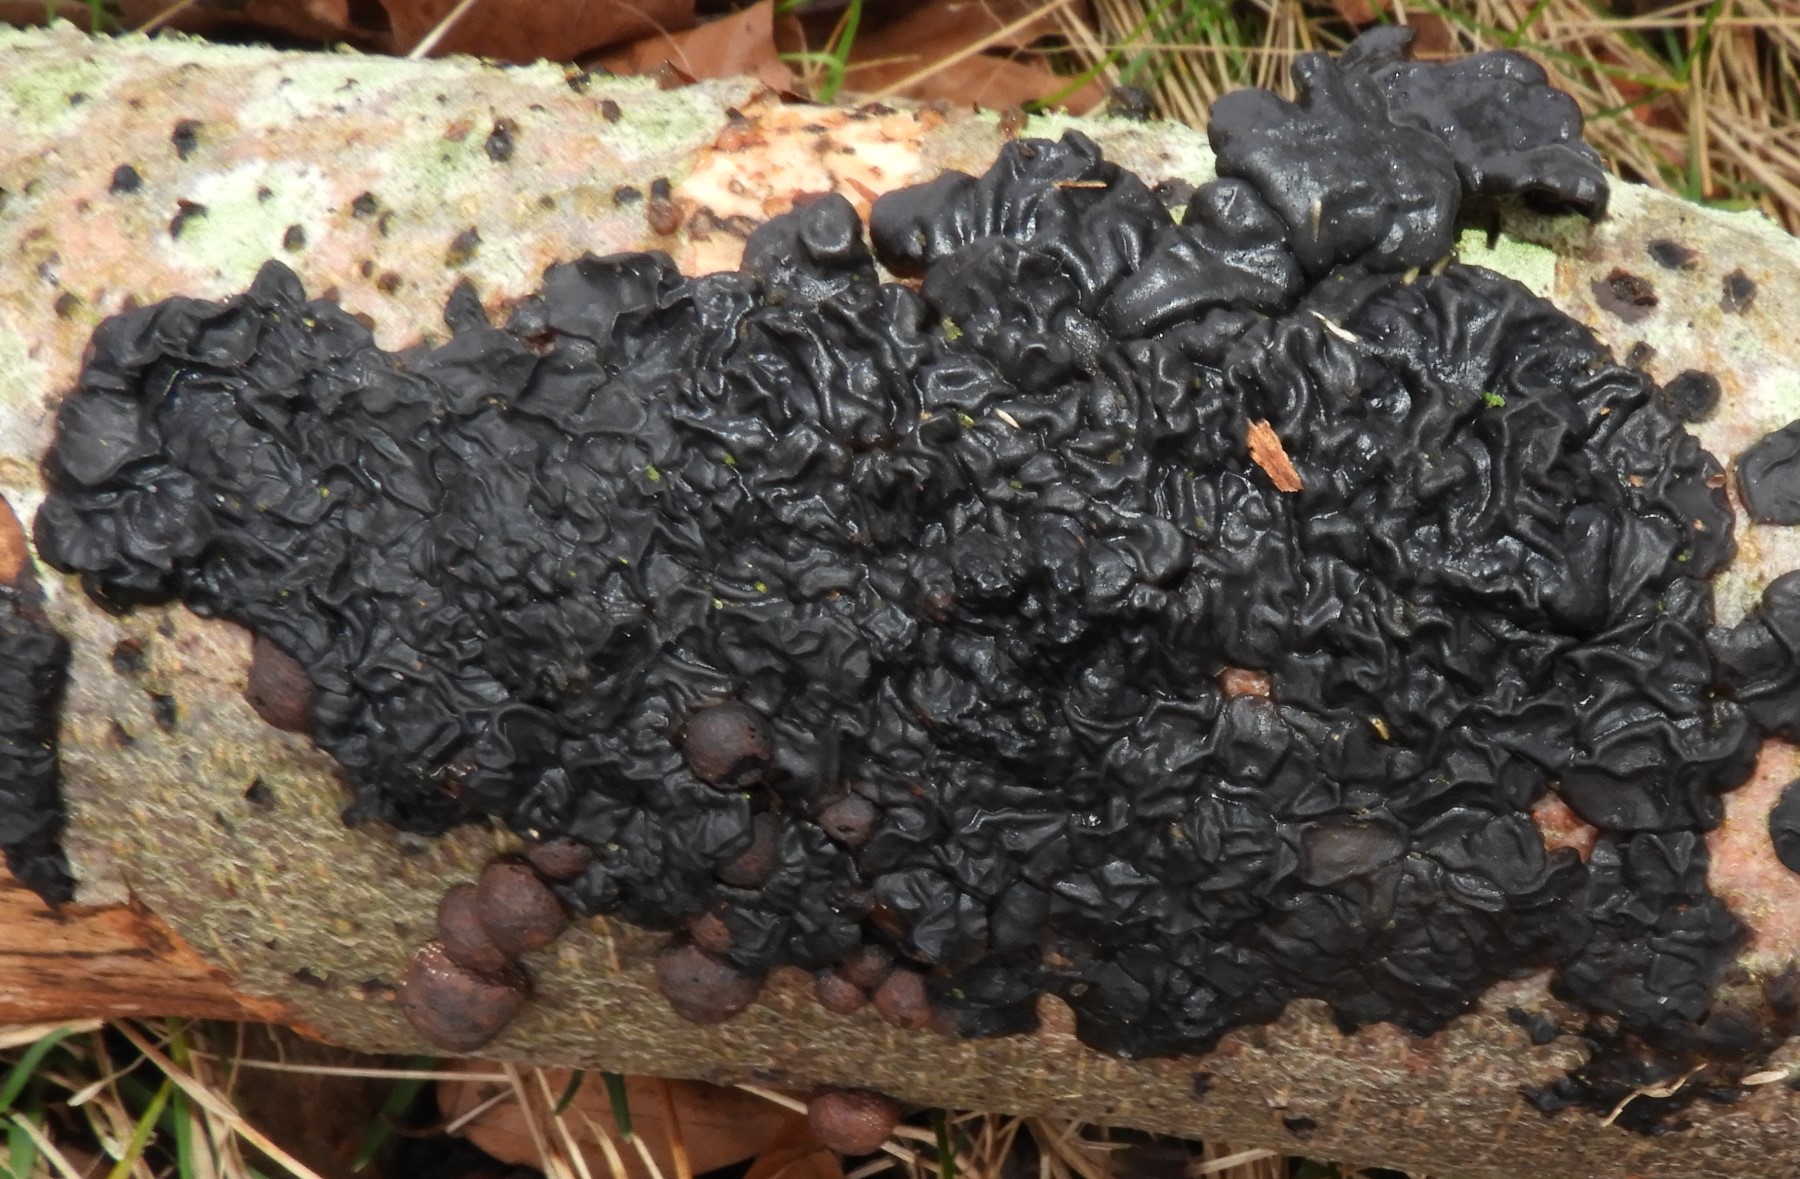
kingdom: Fungi
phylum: Basidiomycota
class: Agaricomycetes
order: Auriculariales
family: Auriculariaceae
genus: Exidia
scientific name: Exidia nigricans
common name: almindelig bævretop
